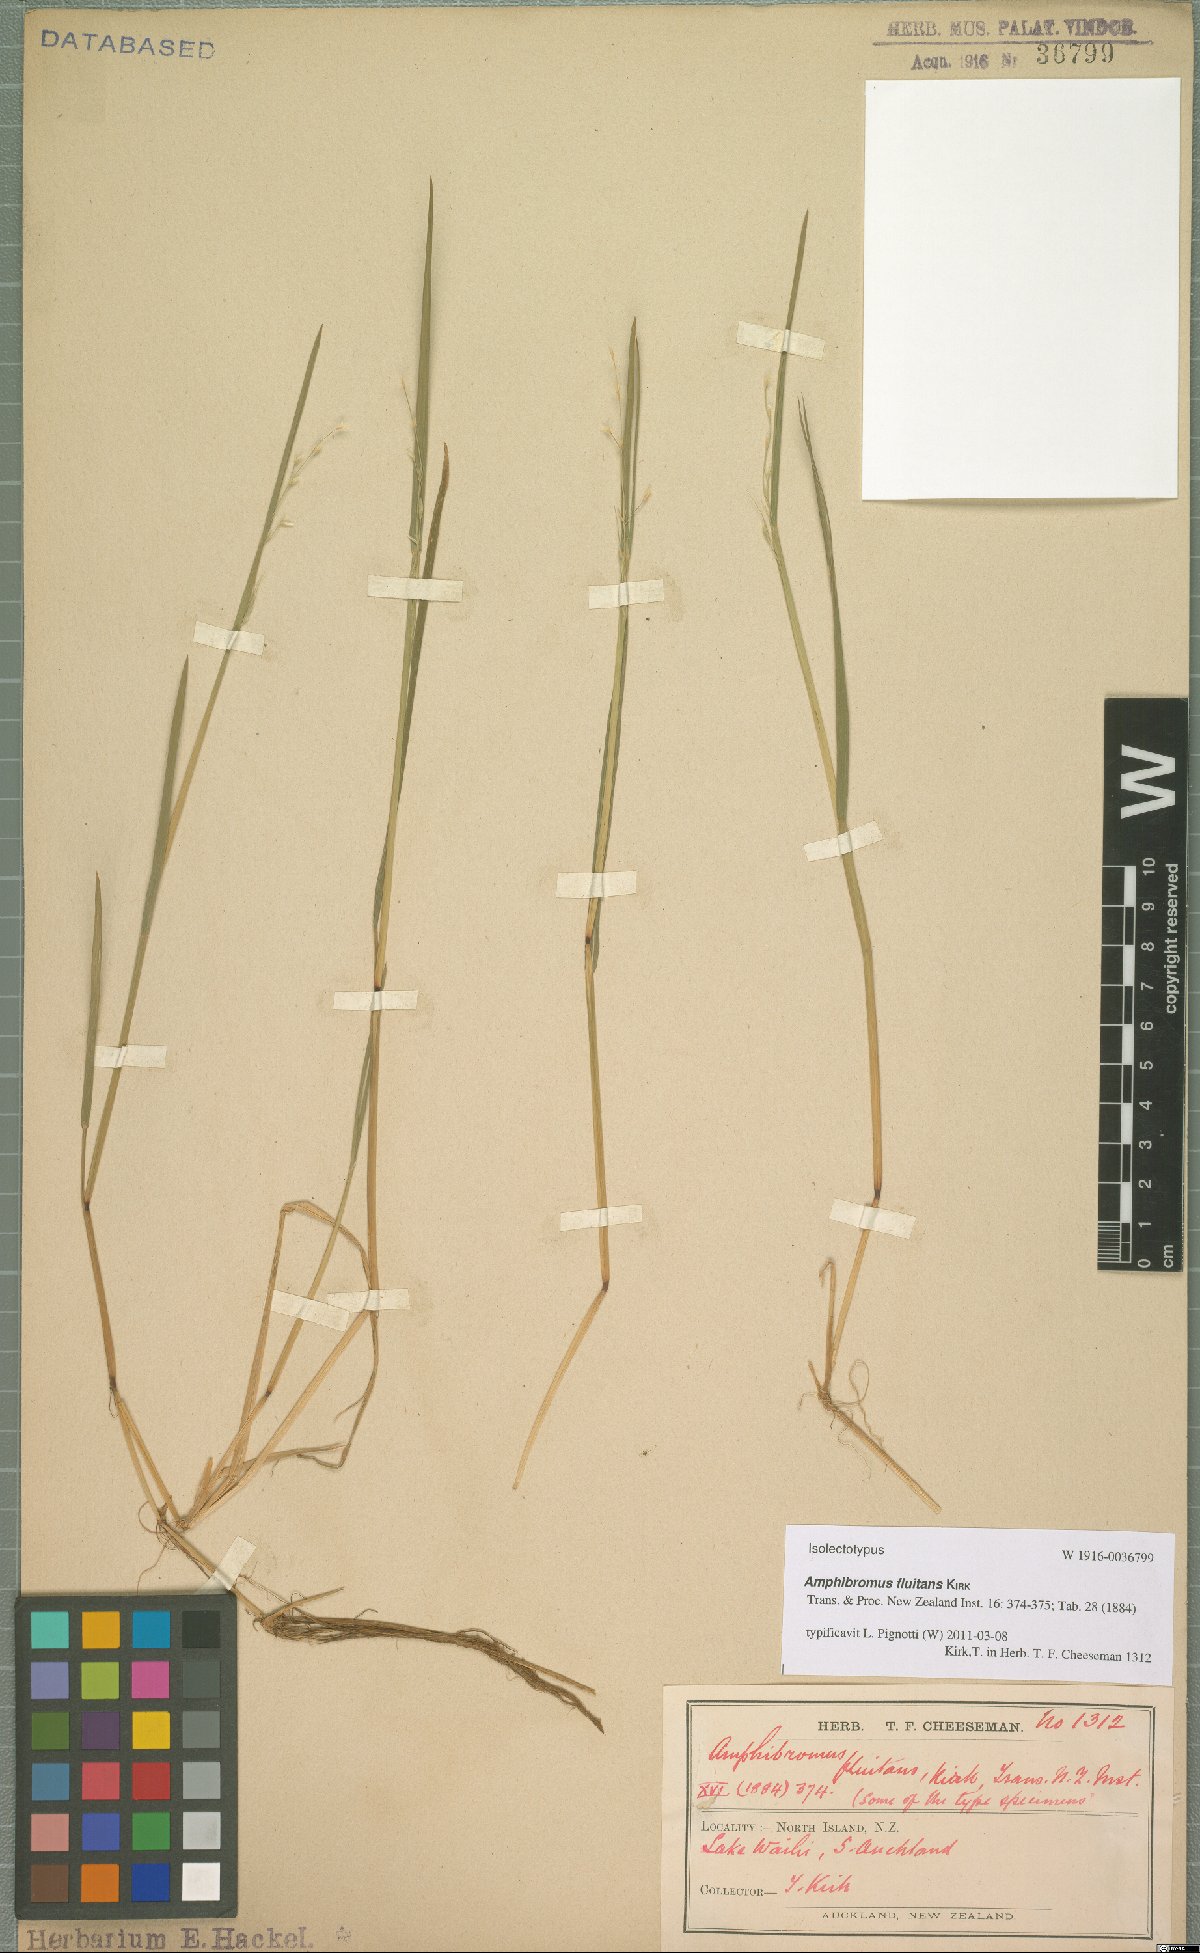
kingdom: Plantae
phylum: Tracheophyta
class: Liliopsida
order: Poales
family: Poaceae
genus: Amphibromus
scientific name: Amphibromus fluitans
